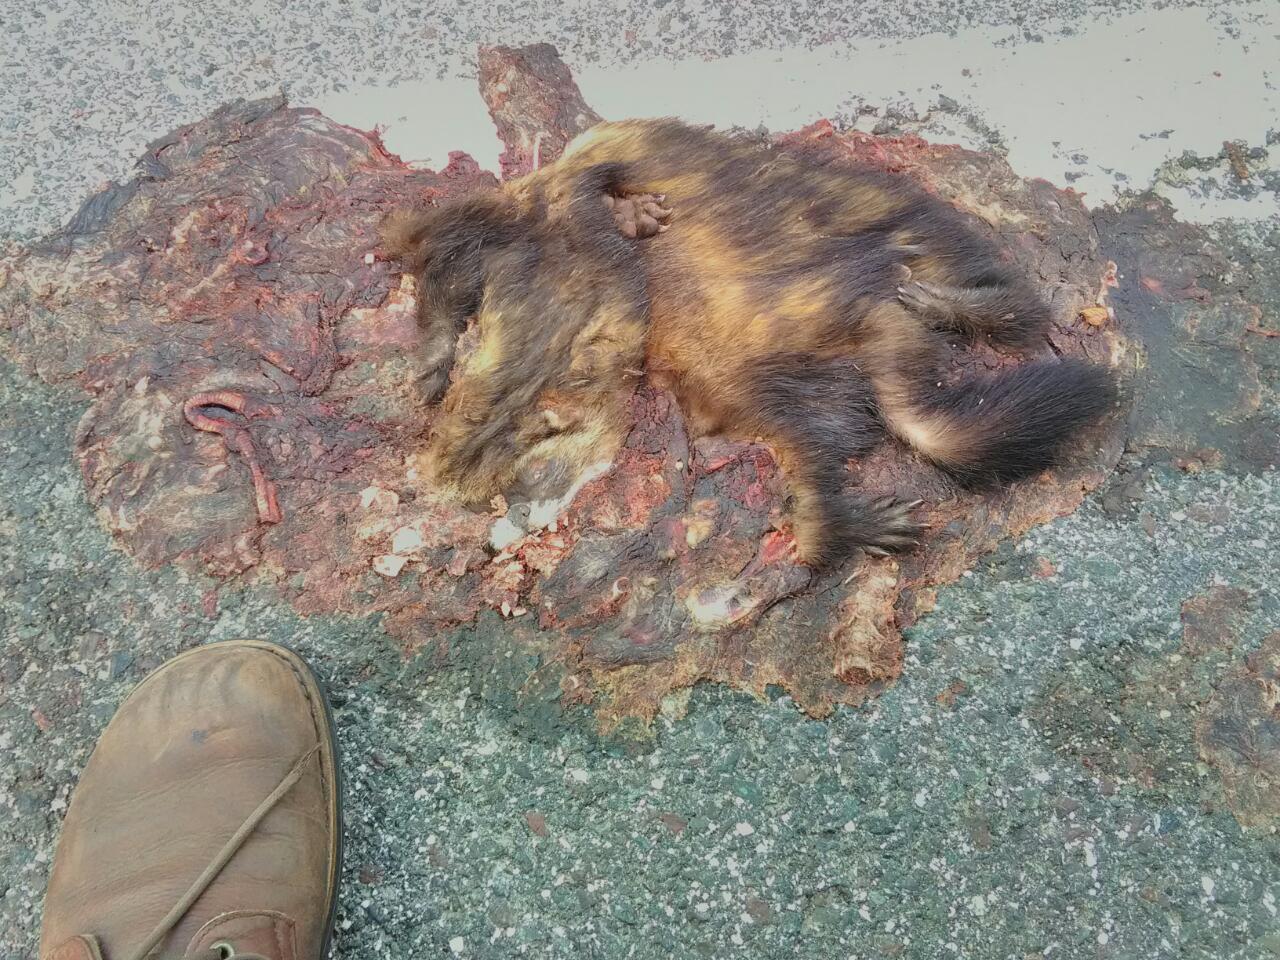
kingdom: Animalia
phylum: Chordata
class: Mammalia
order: Carnivora
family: Mustelidae
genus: Mustela
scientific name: Mustela putorius
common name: European polecat
